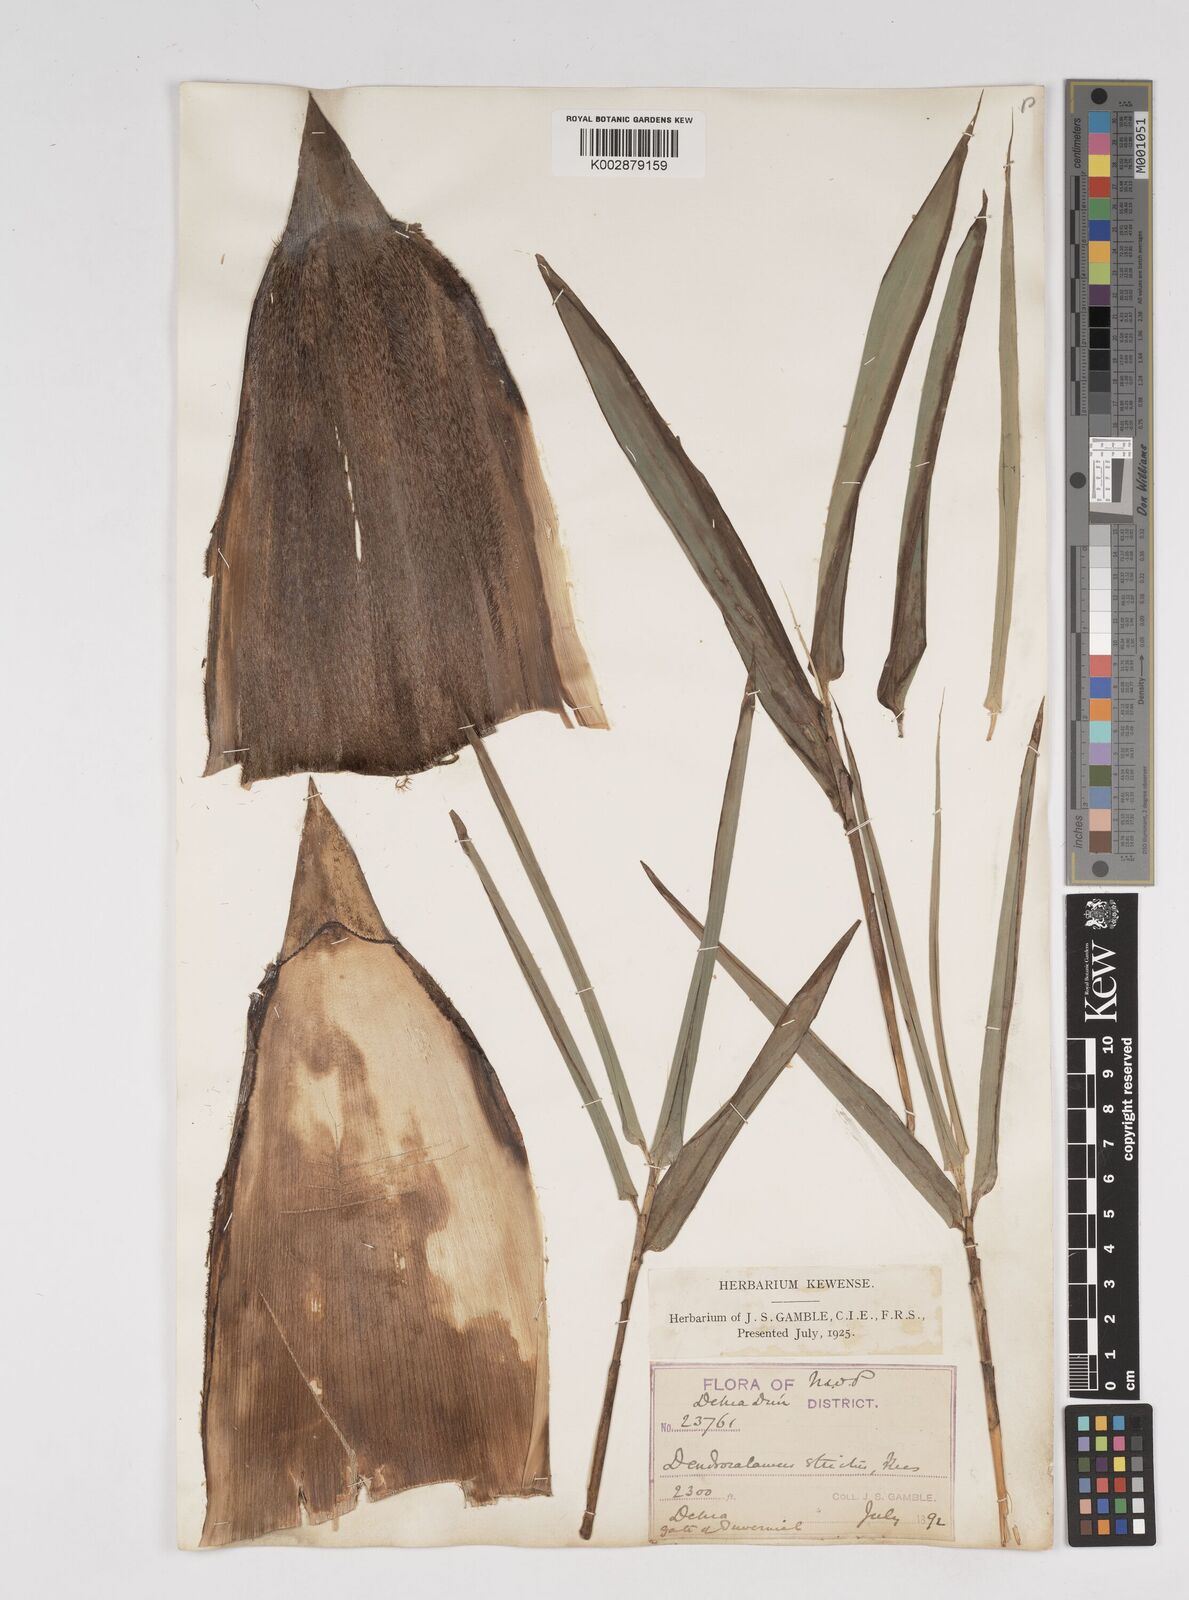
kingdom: Plantae
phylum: Tracheophyta
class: Liliopsida
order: Poales
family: Poaceae
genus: Dendrocalamus
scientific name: Dendrocalamus strictus
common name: Male bamboo
